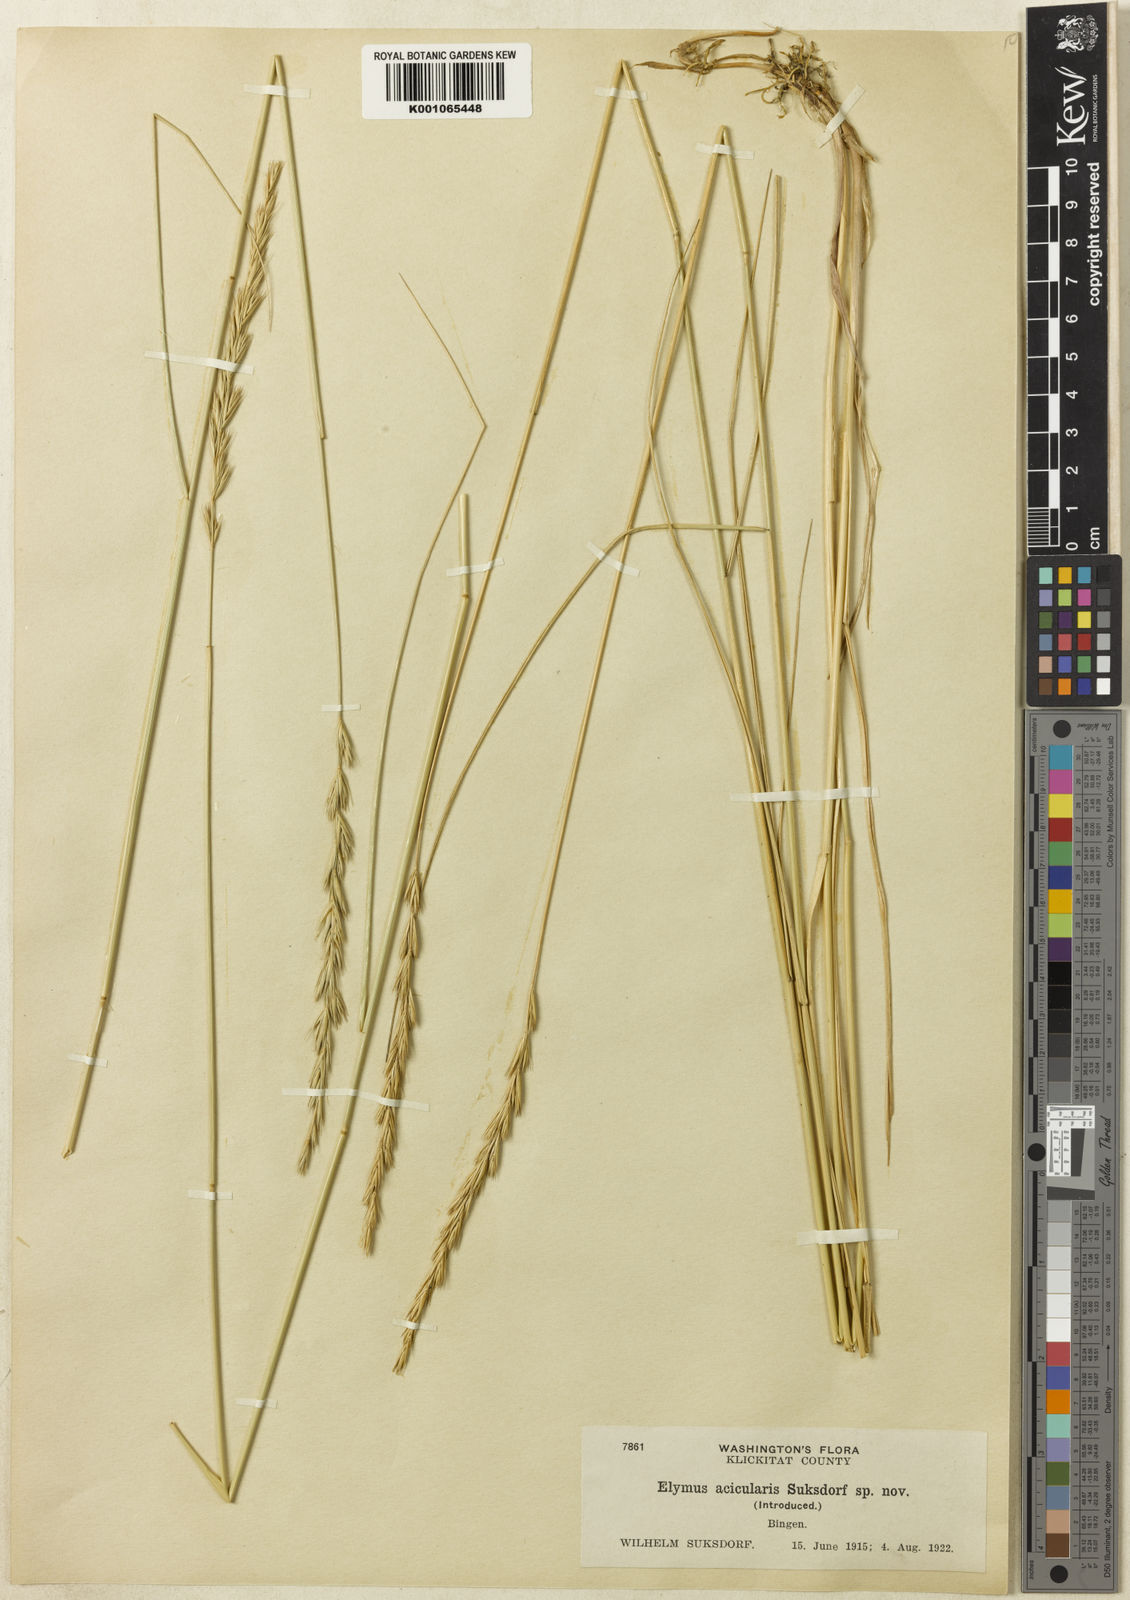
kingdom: Plantae
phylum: Tracheophyta
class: Liliopsida
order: Poales
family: Poaceae
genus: Leymus
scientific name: Leymus triticoides
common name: Beardless wild rye
